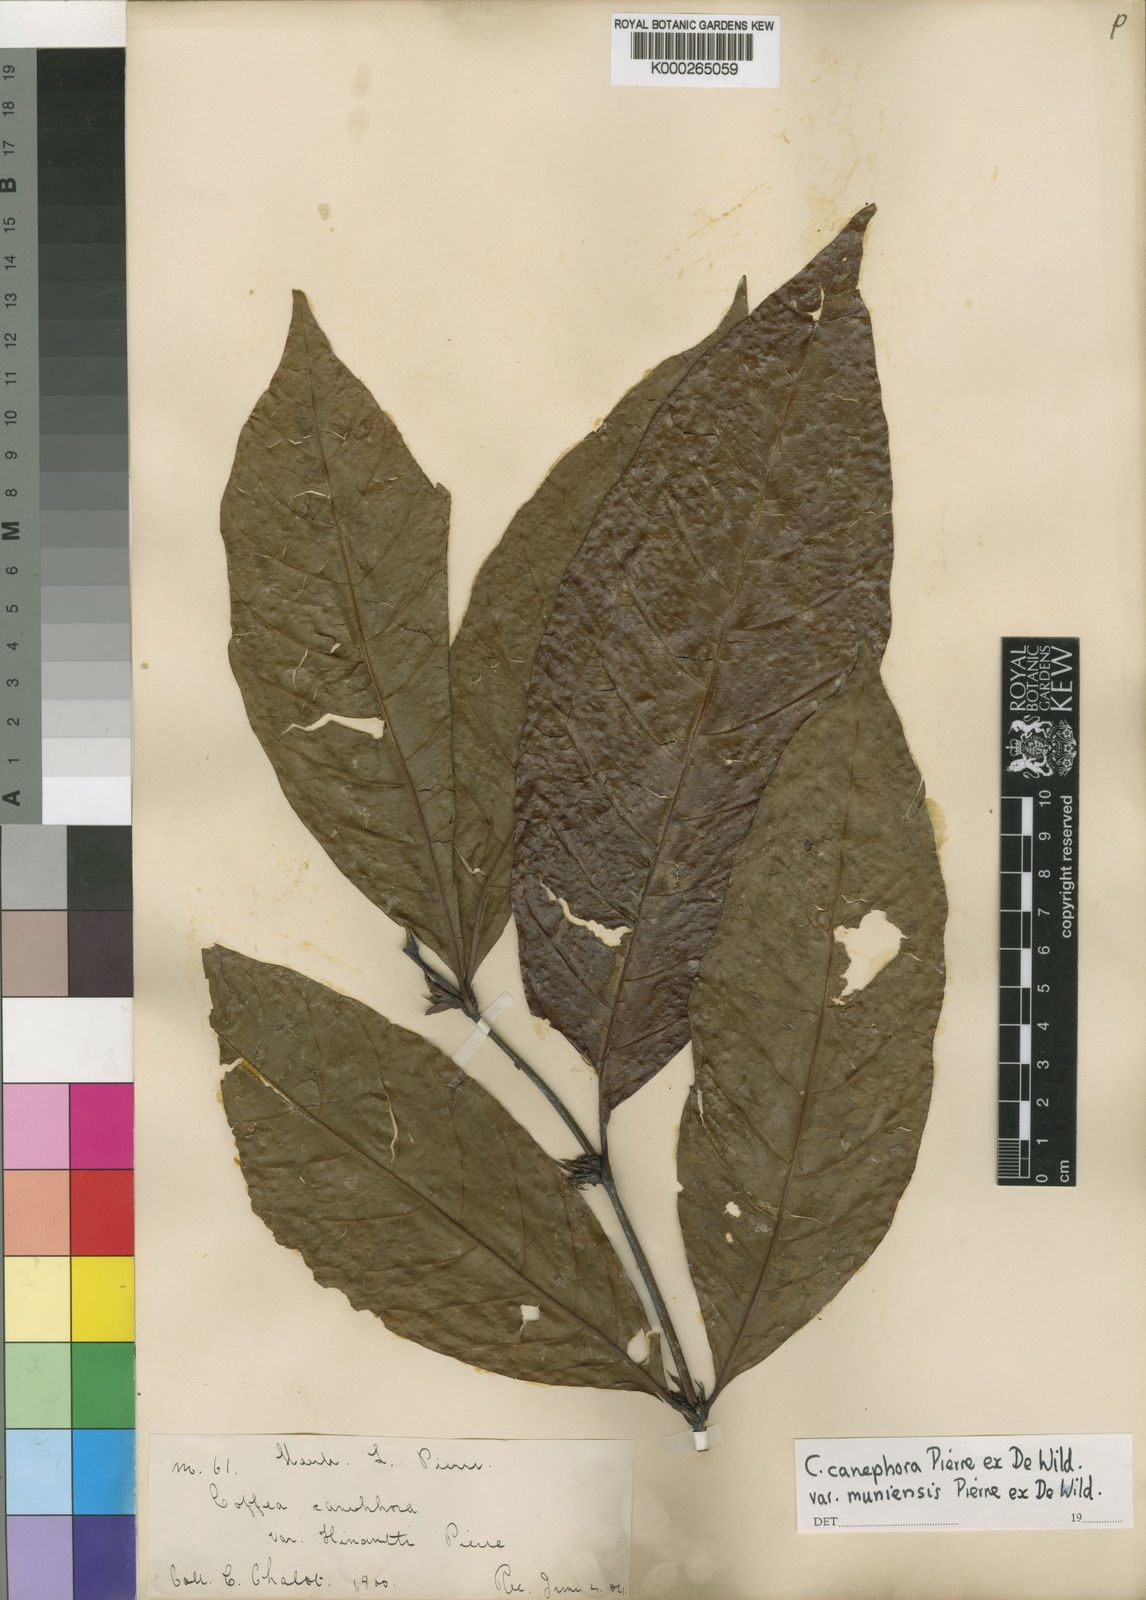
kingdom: Plantae
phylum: Tracheophyta
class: Magnoliopsida
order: Gentianales
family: Rubiaceae
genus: Coffea
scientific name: Coffea canephora
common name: Robusta coffee
